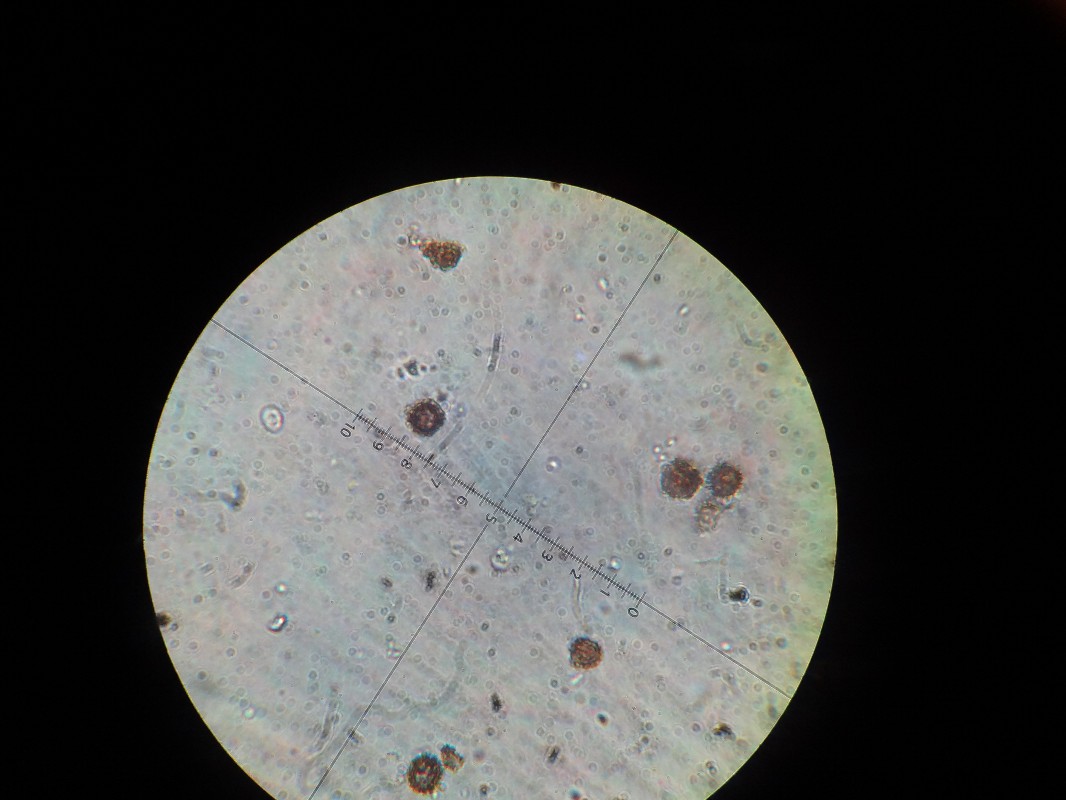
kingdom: Fungi
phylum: Basidiomycota
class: Agaricomycetes
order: Boletales
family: Sclerodermataceae
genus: Scleroderma
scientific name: Scleroderma verrucosum
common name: stilket bruskbold
